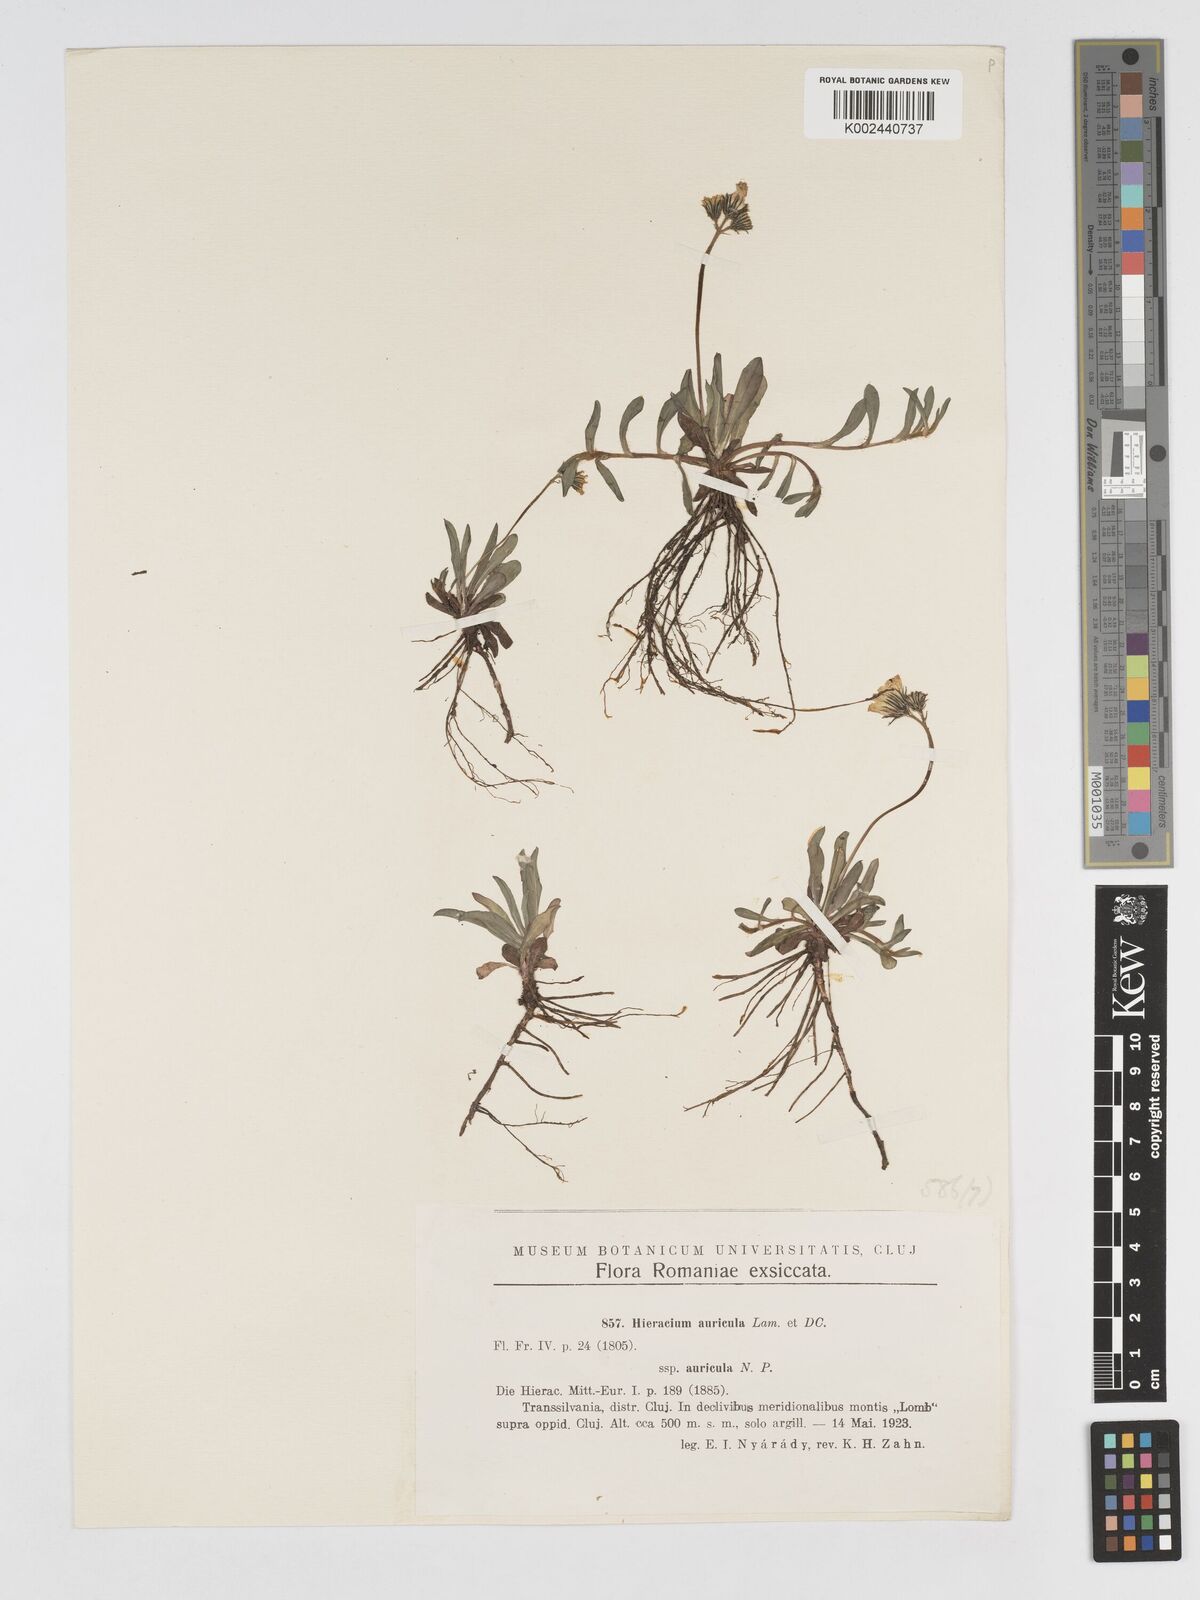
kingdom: Plantae
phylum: Tracheophyta
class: Magnoliopsida
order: Asterales
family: Asteraceae
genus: Pilosella
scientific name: Pilosella floribunda
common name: Glaucous hawkweed
